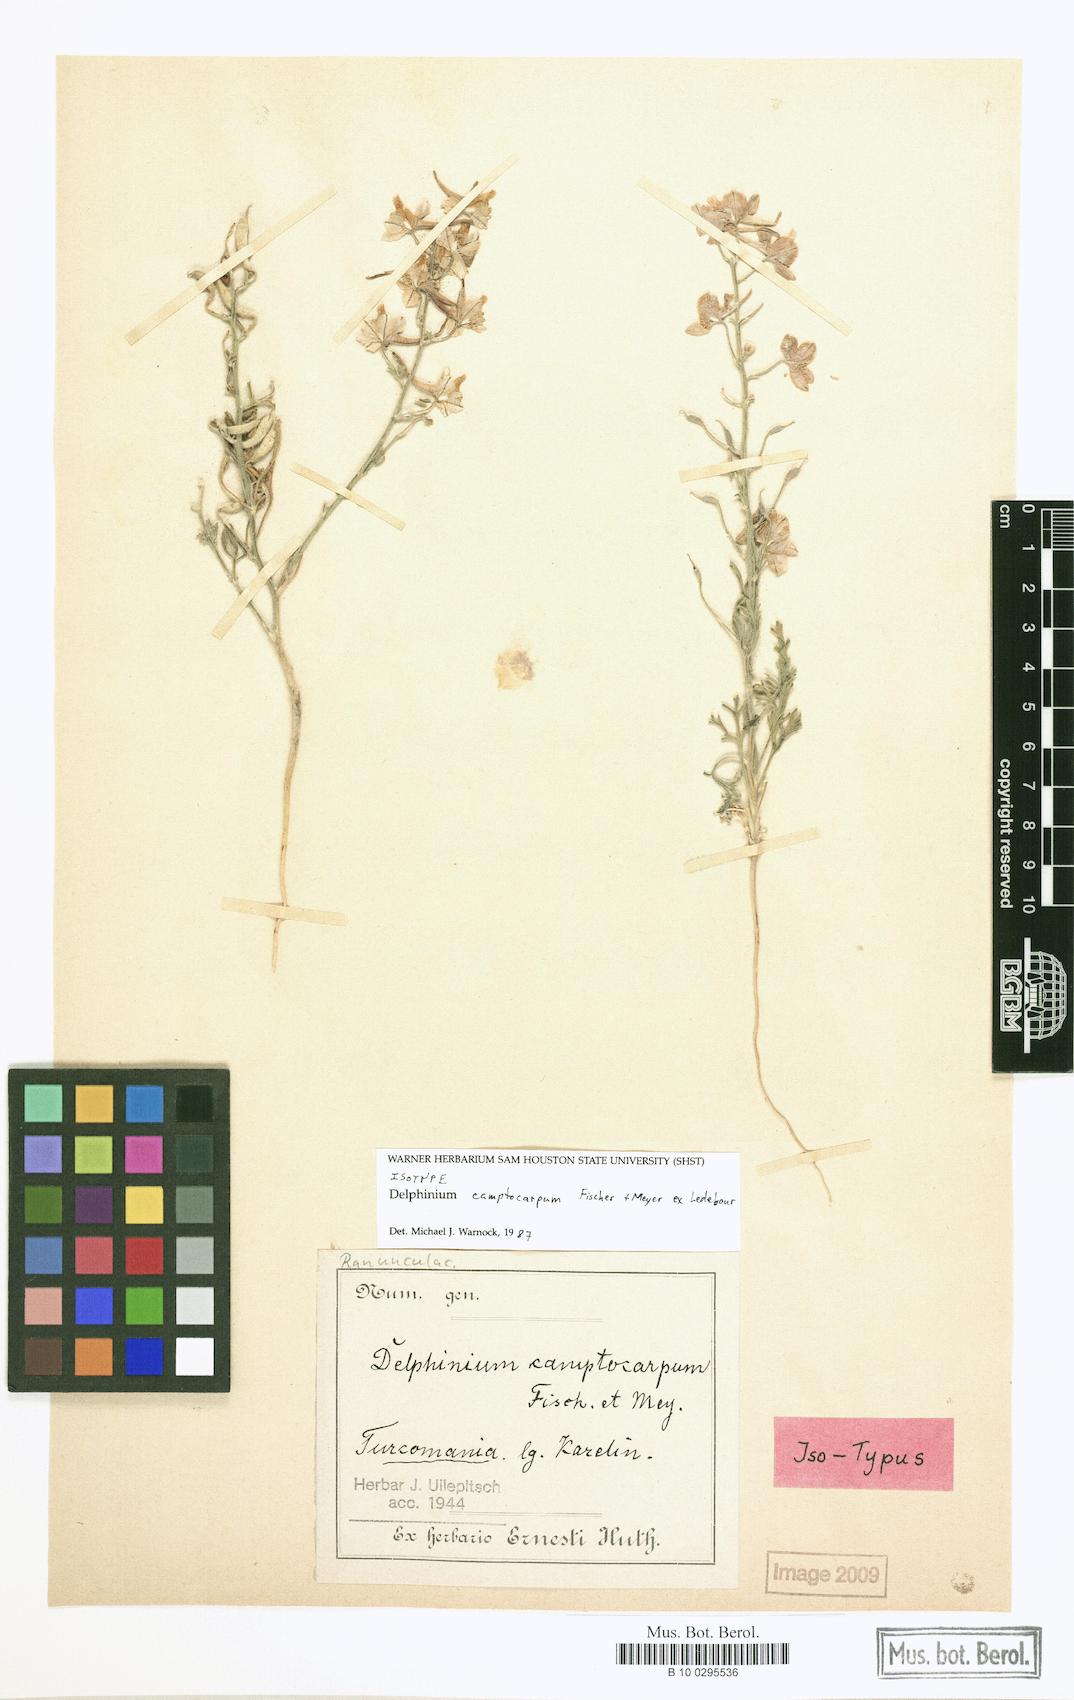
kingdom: Plantae
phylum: Tracheophyta
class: Magnoliopsida
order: Ranunculales
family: Ranunculaceae
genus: Delphinium
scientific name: Delphinium camptocarpum
